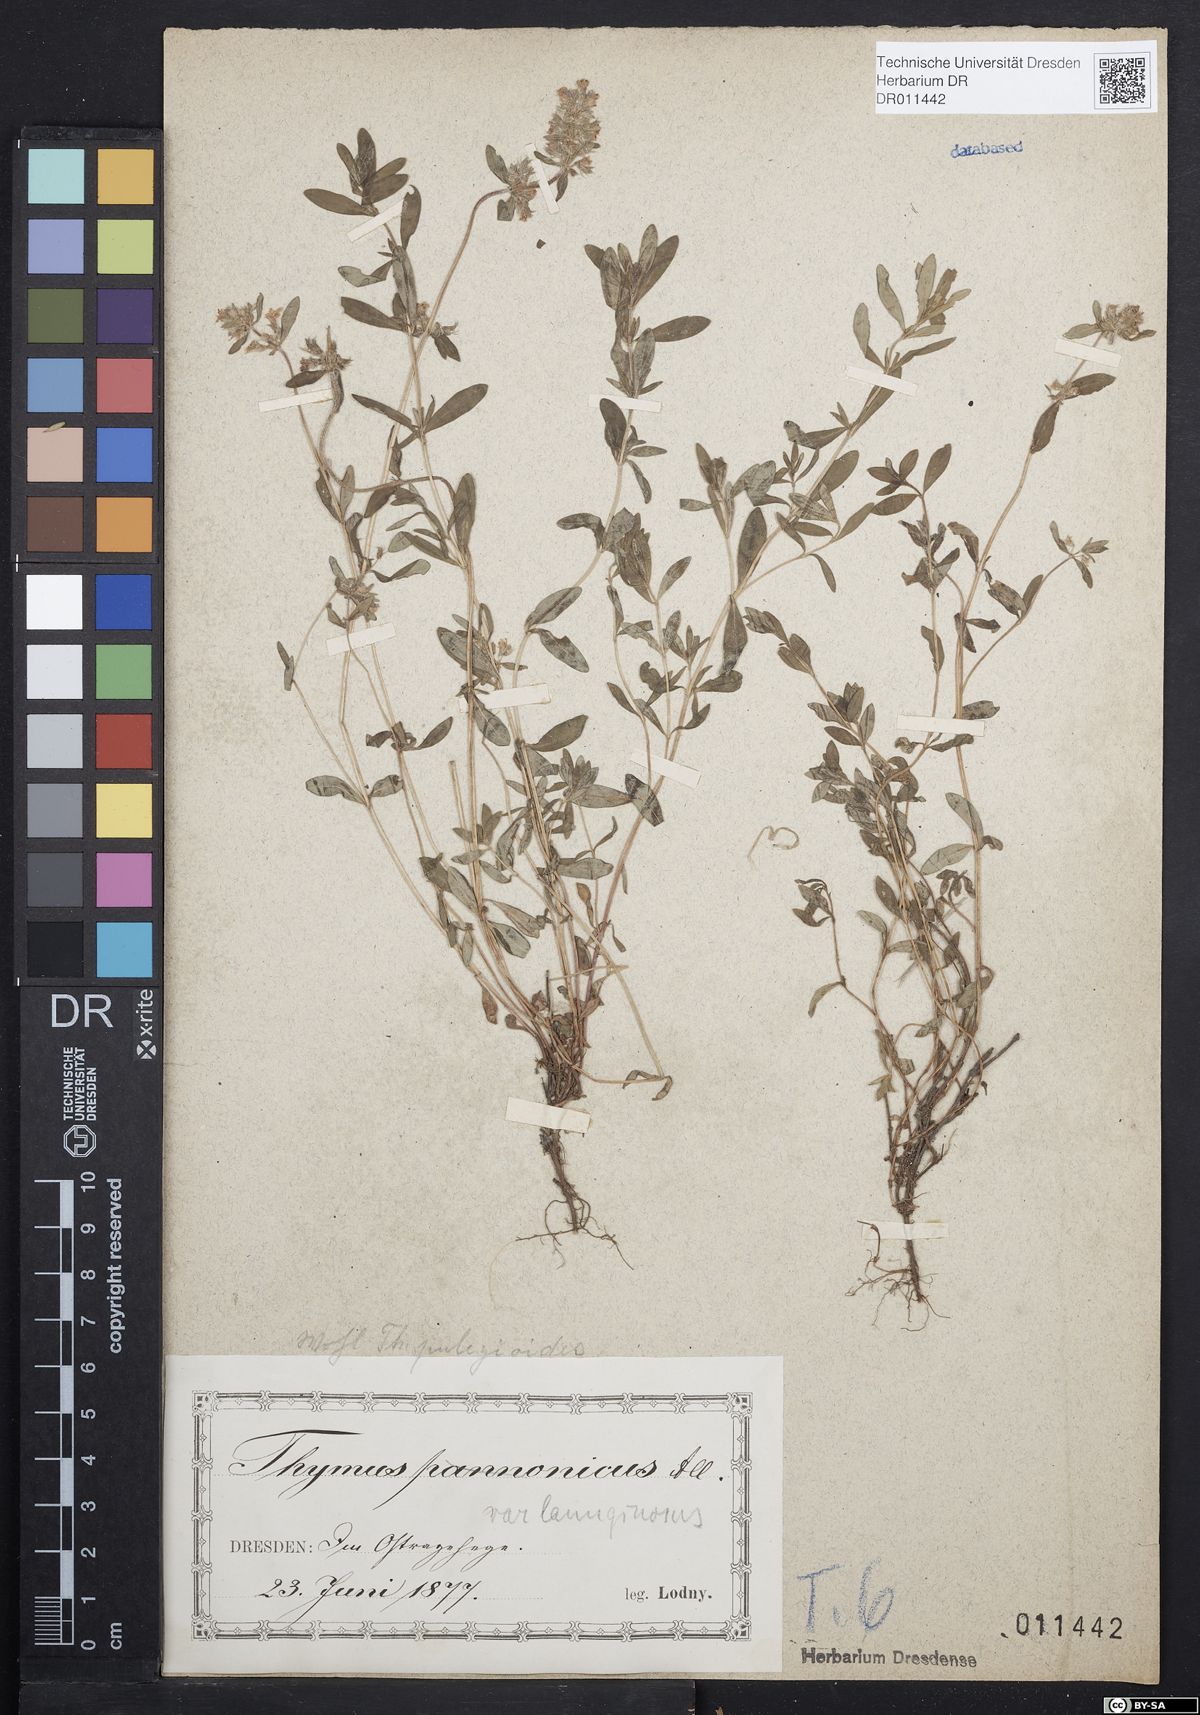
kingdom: Plantae
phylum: Tracheophyta
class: Magnoliopsida
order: Lamiales
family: Lamiaceae
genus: Thymus
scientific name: Thymus pannonicus
